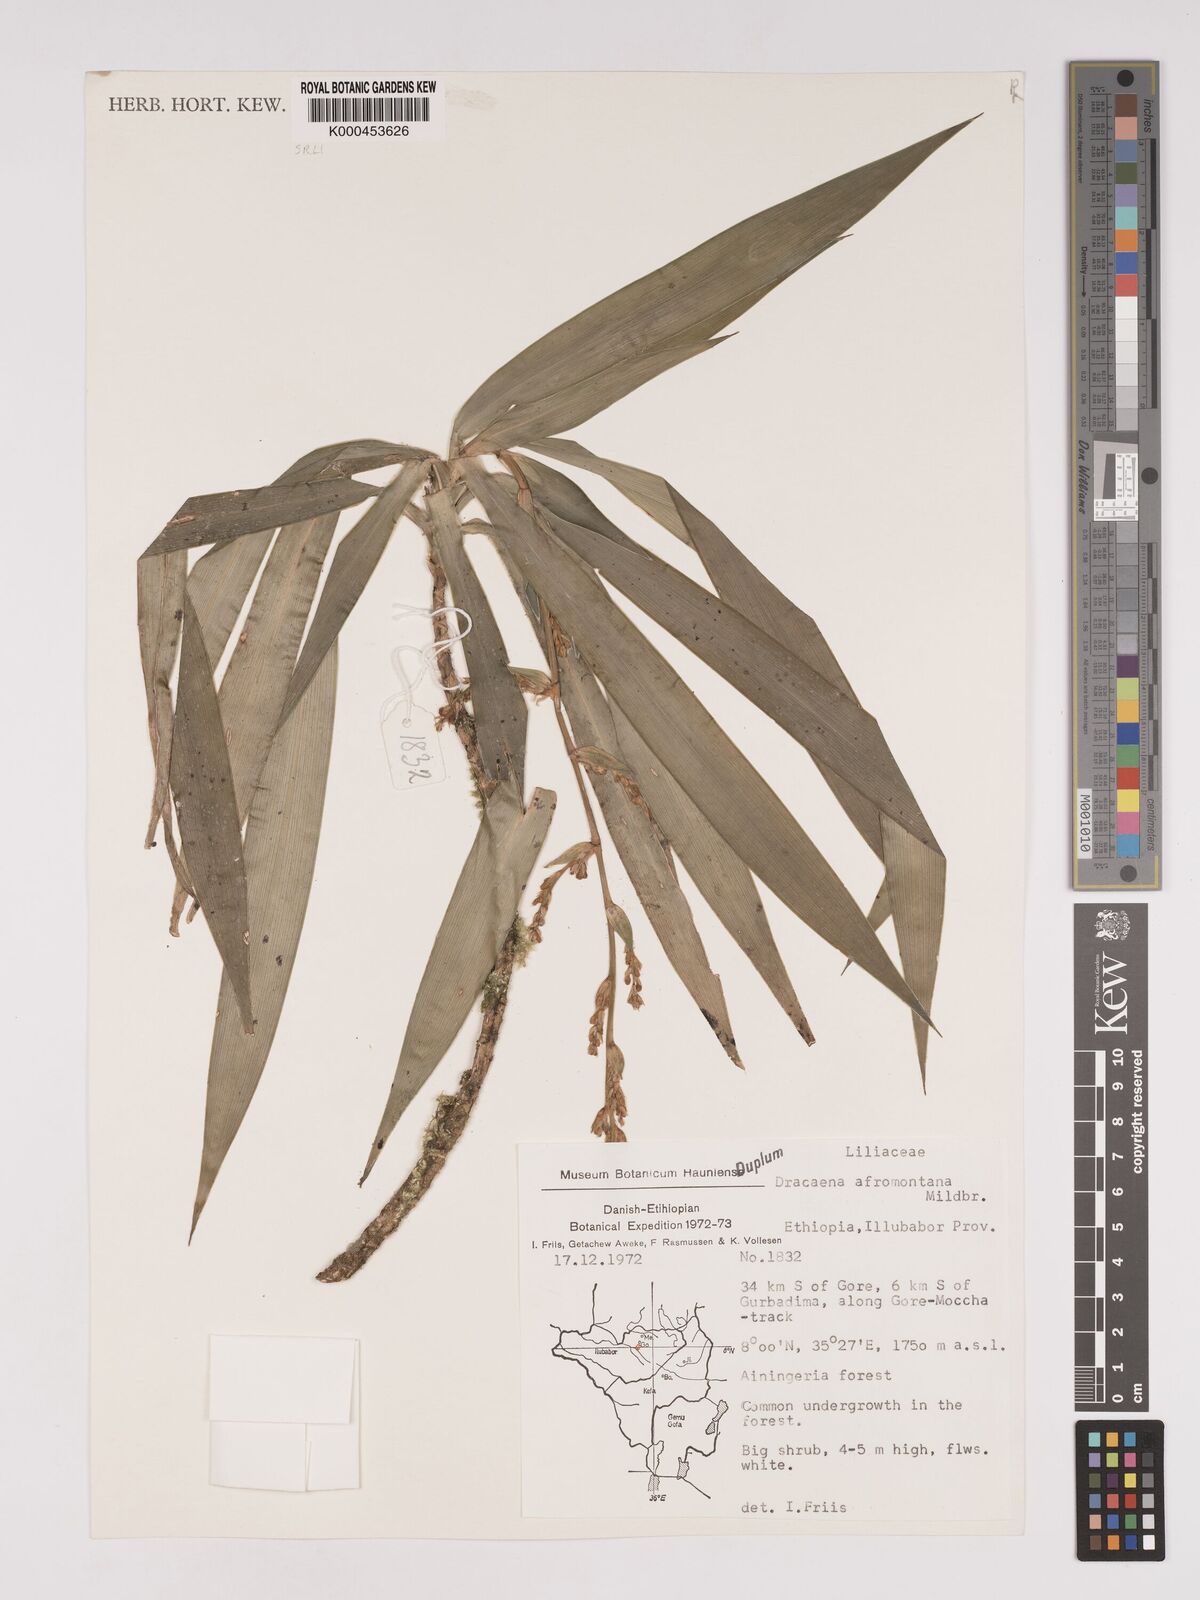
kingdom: Plantae
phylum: Tracheophyta
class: Liliopsida
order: Asparagales
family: Asparagaceae
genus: Dracaena
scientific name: Dracaena afromontana
